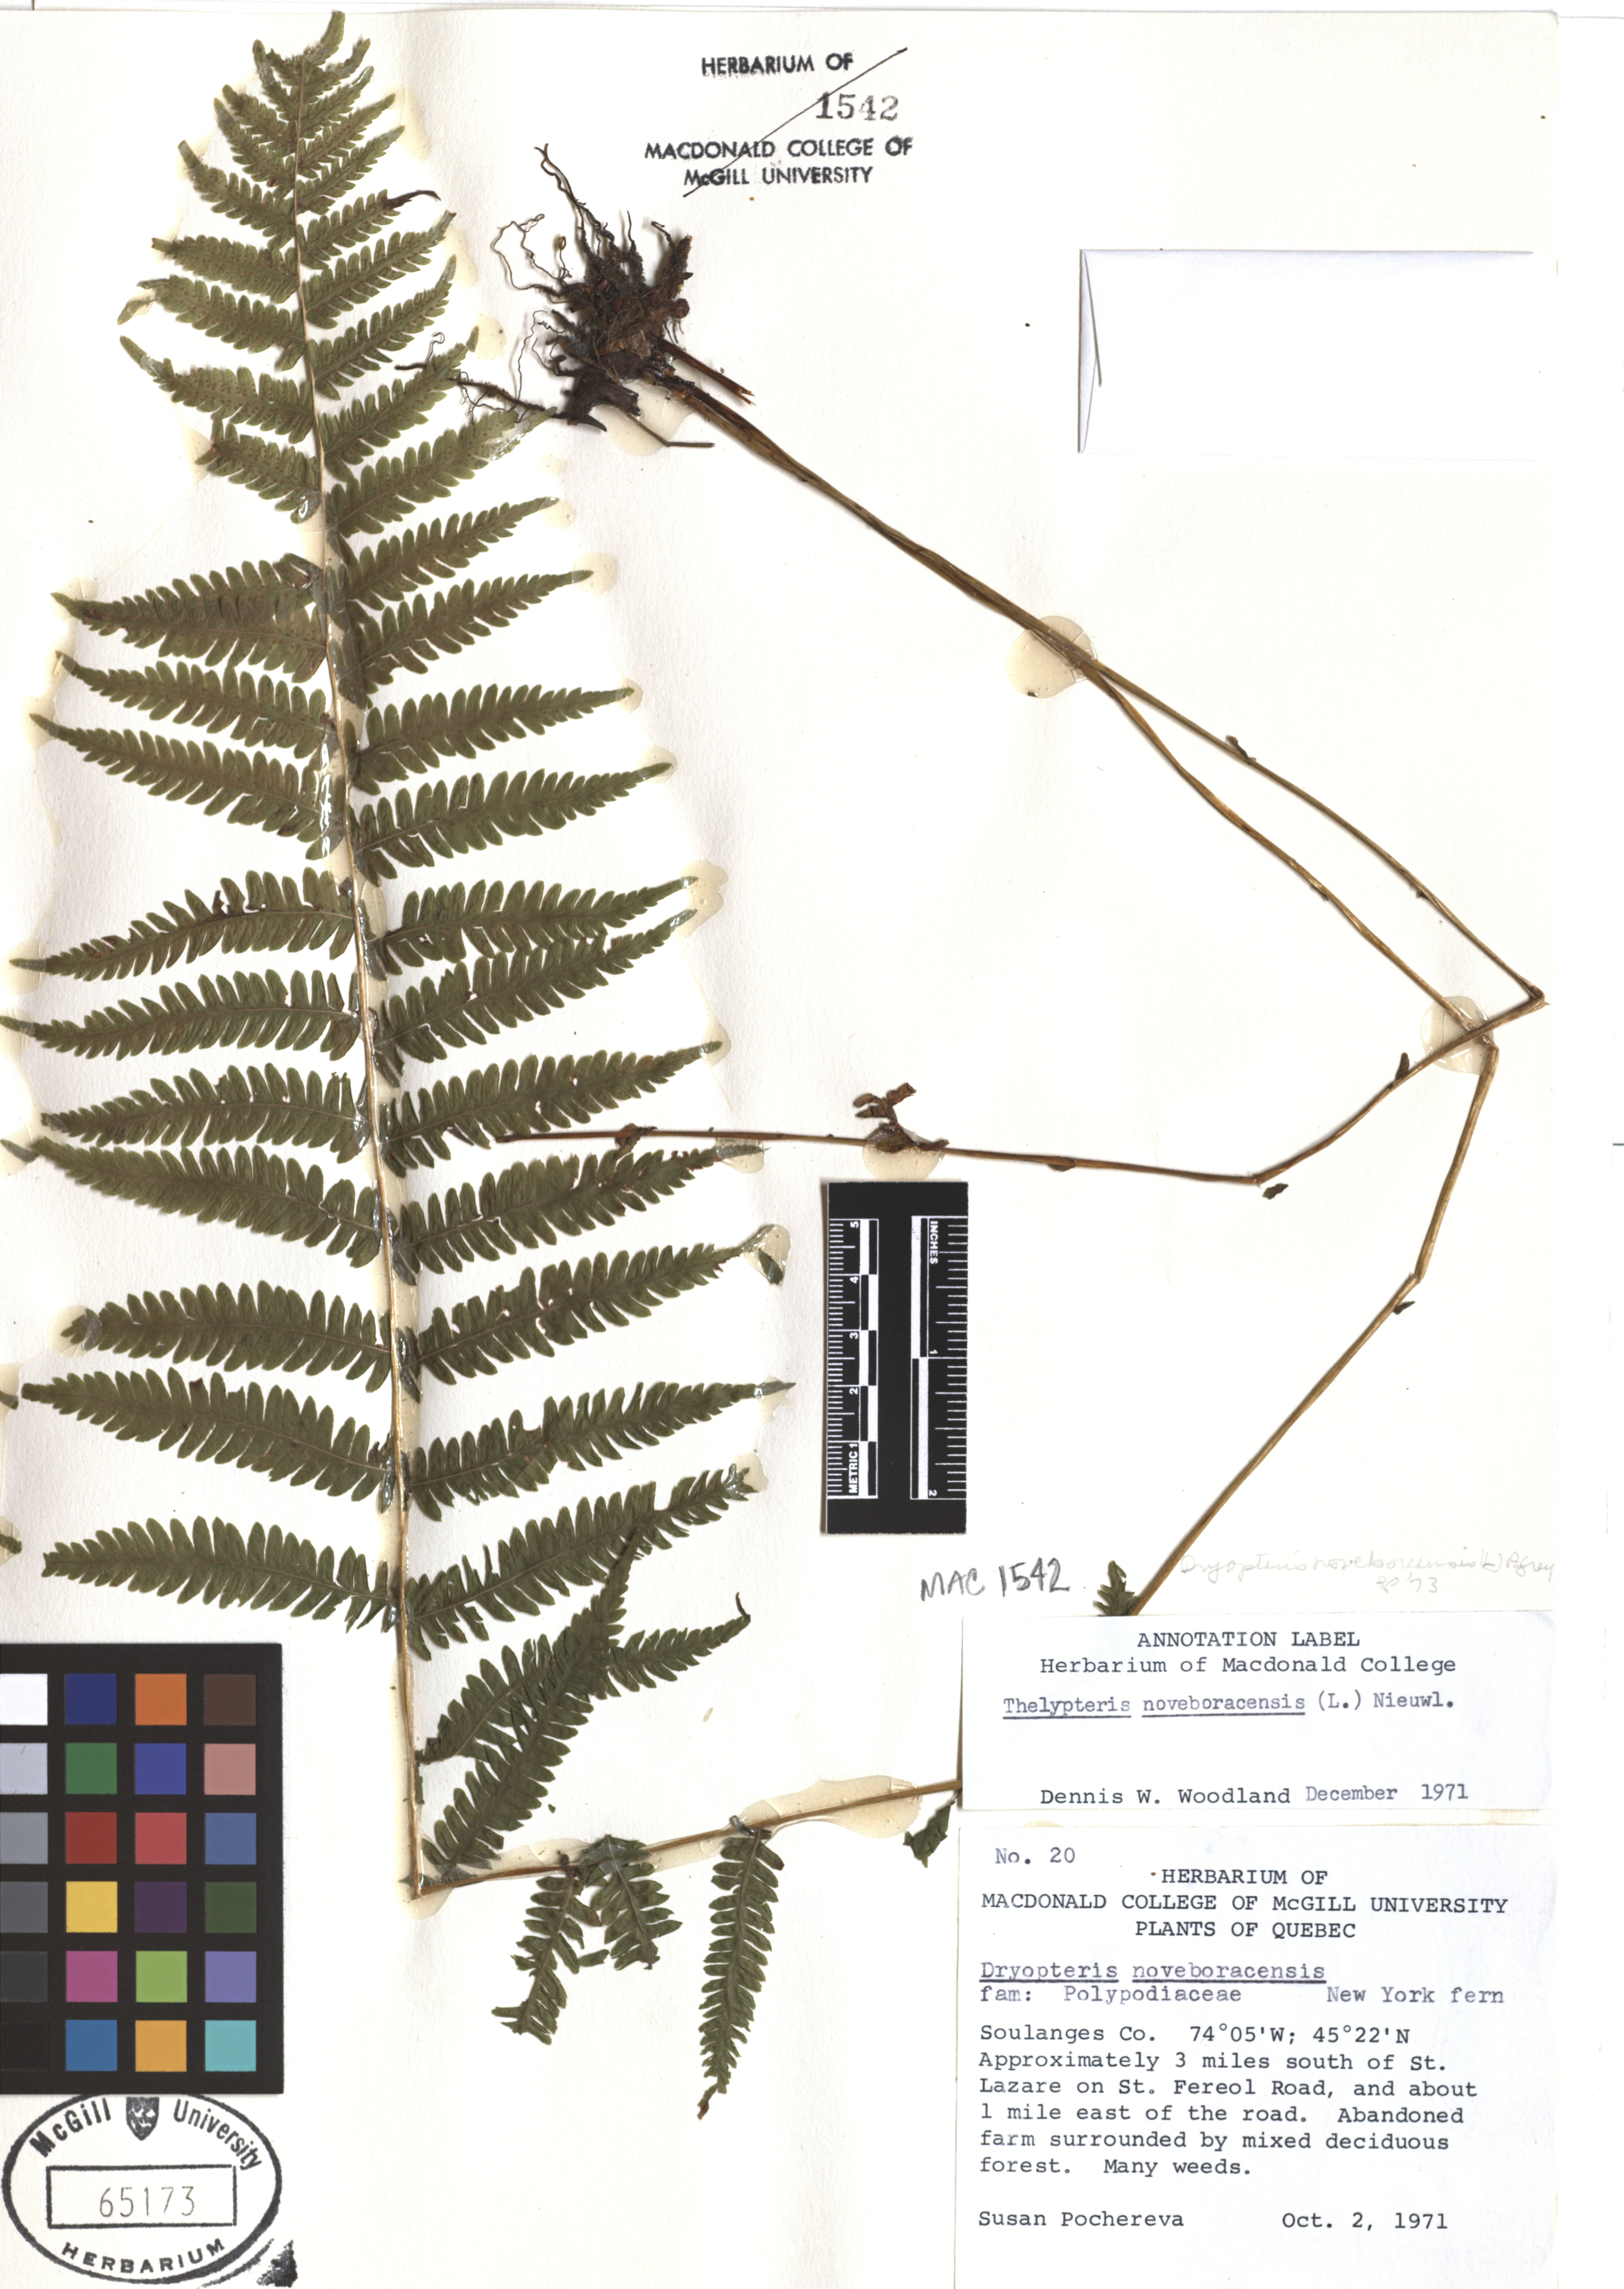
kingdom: Plantae
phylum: Tracheophyta
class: Polypodiopsida
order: Polypodiales
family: Thelypteridaceae
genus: Amauropelta
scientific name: Amauropelta noveboracensis
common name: New york fern
